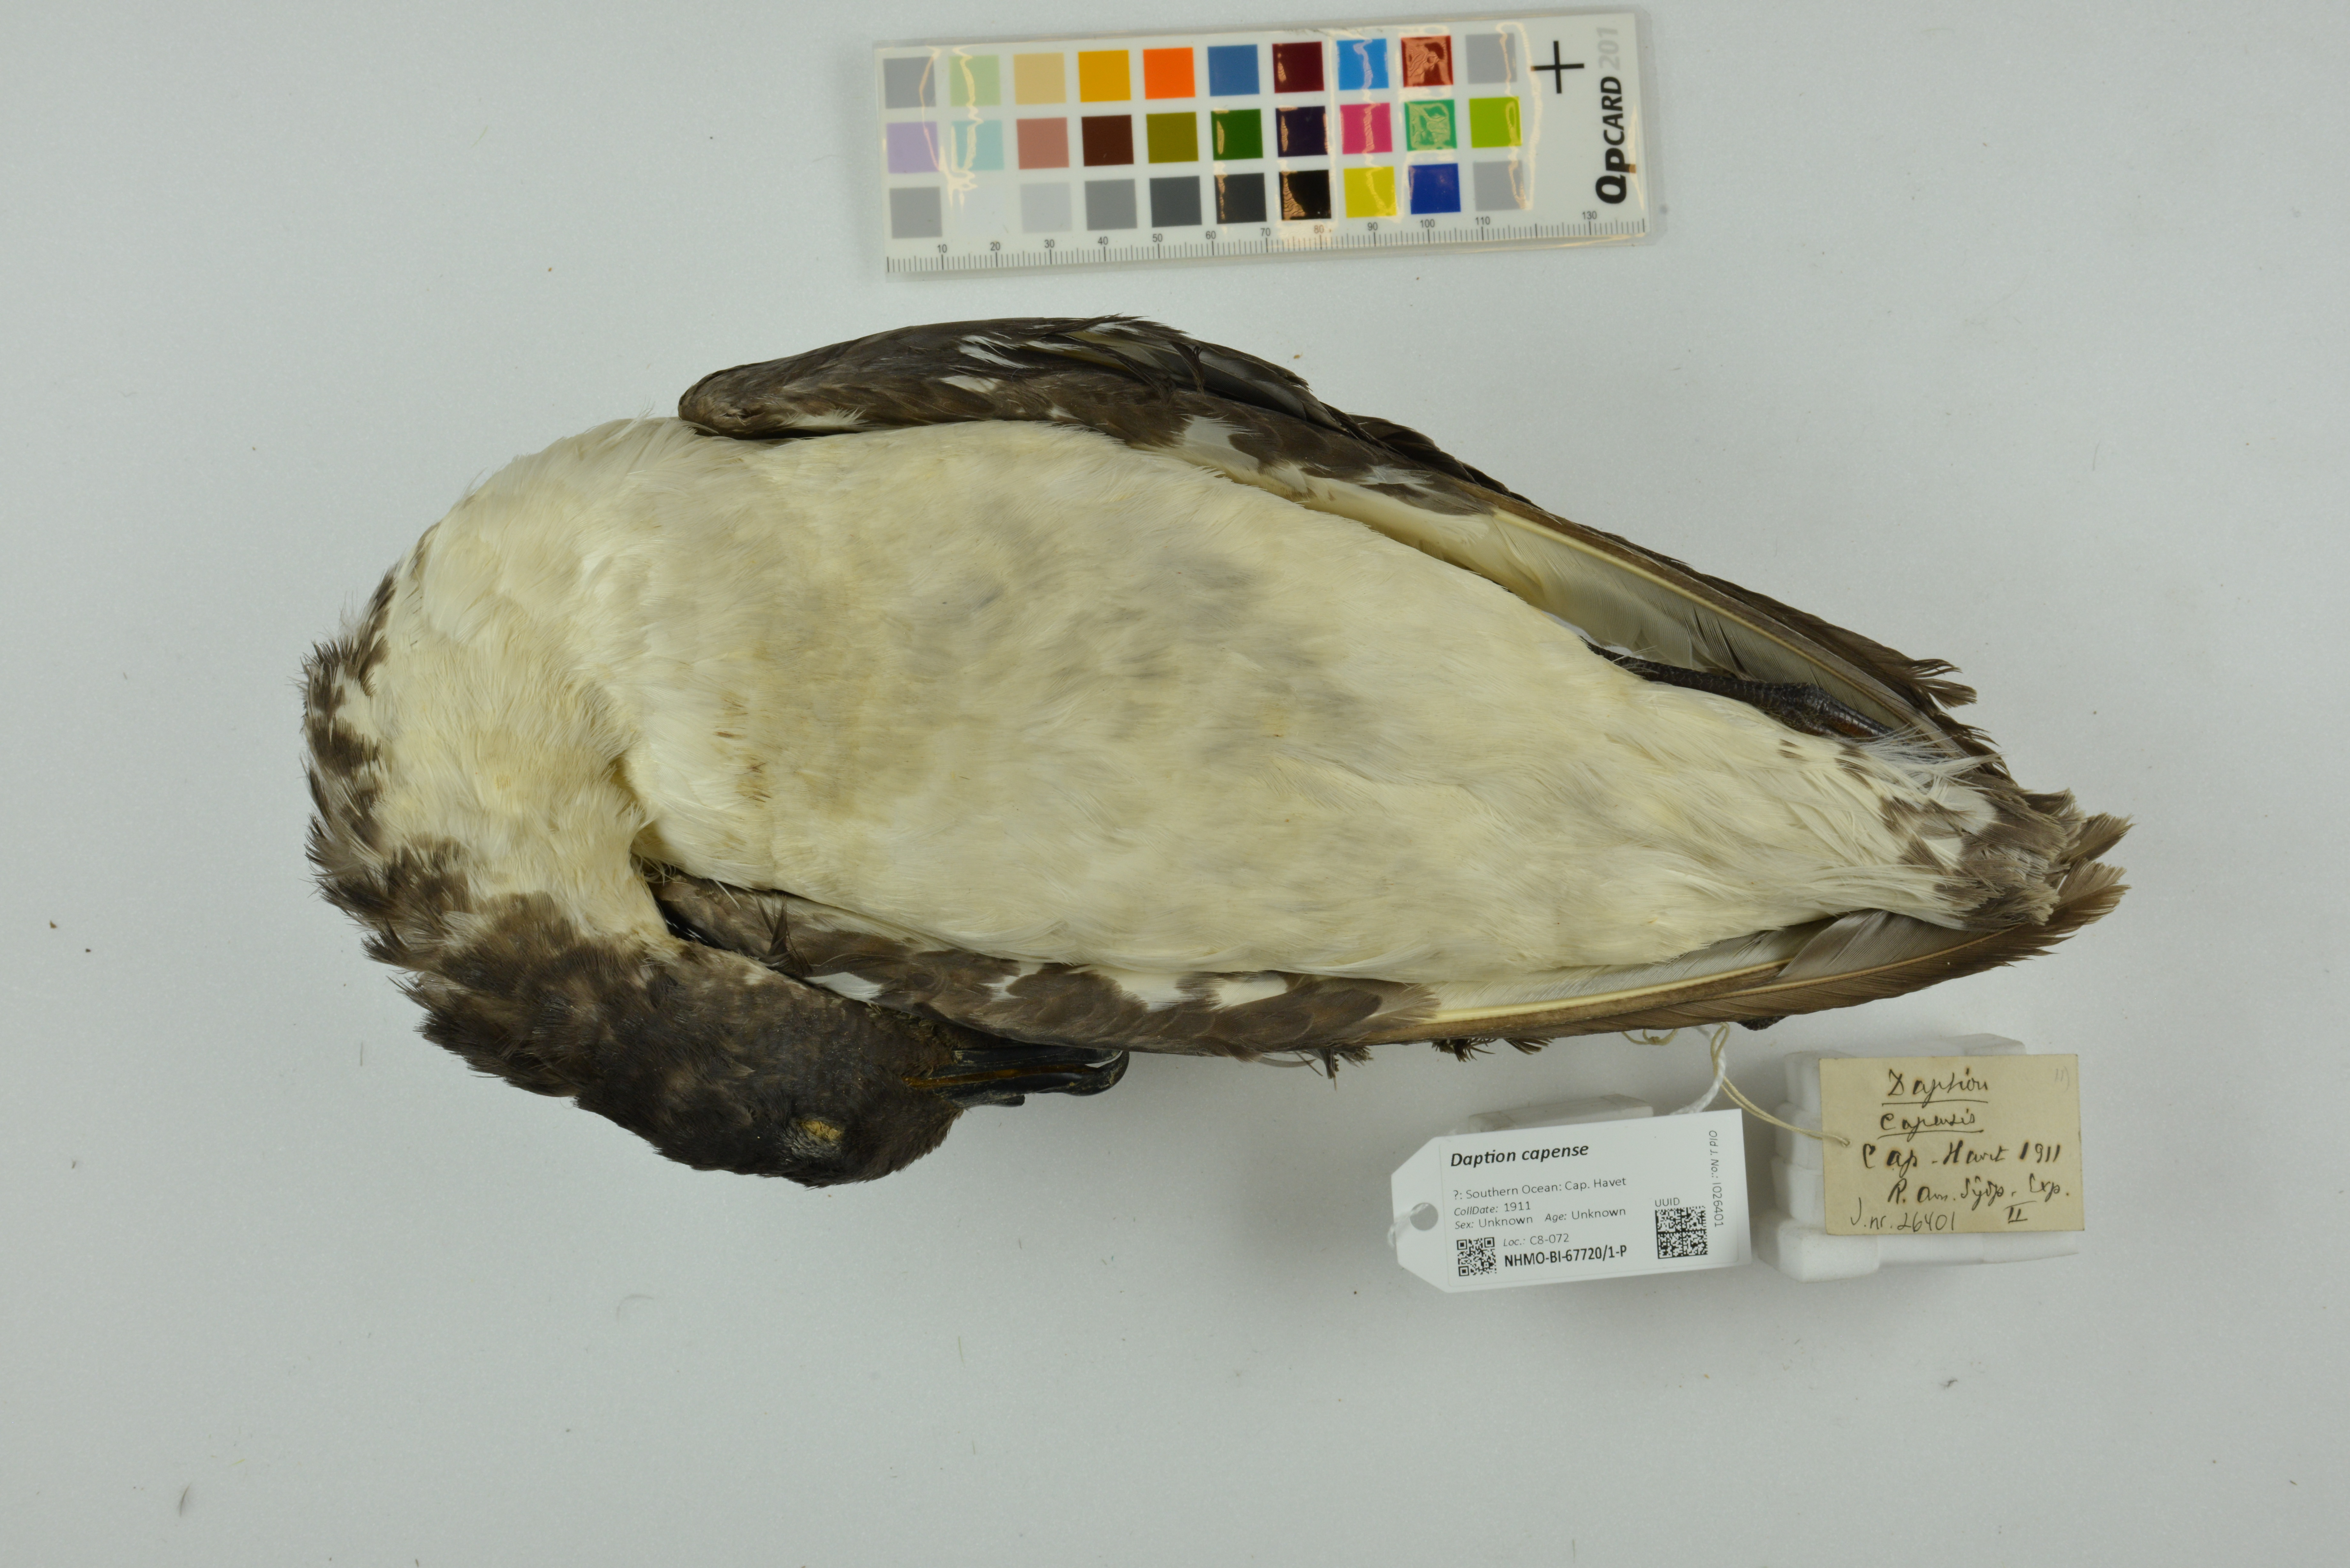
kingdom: Animalia
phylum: Chordata
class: Aves
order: Procellariiformes
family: Procellariidae
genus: Daption
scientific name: Daption capense
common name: Cape petrel
